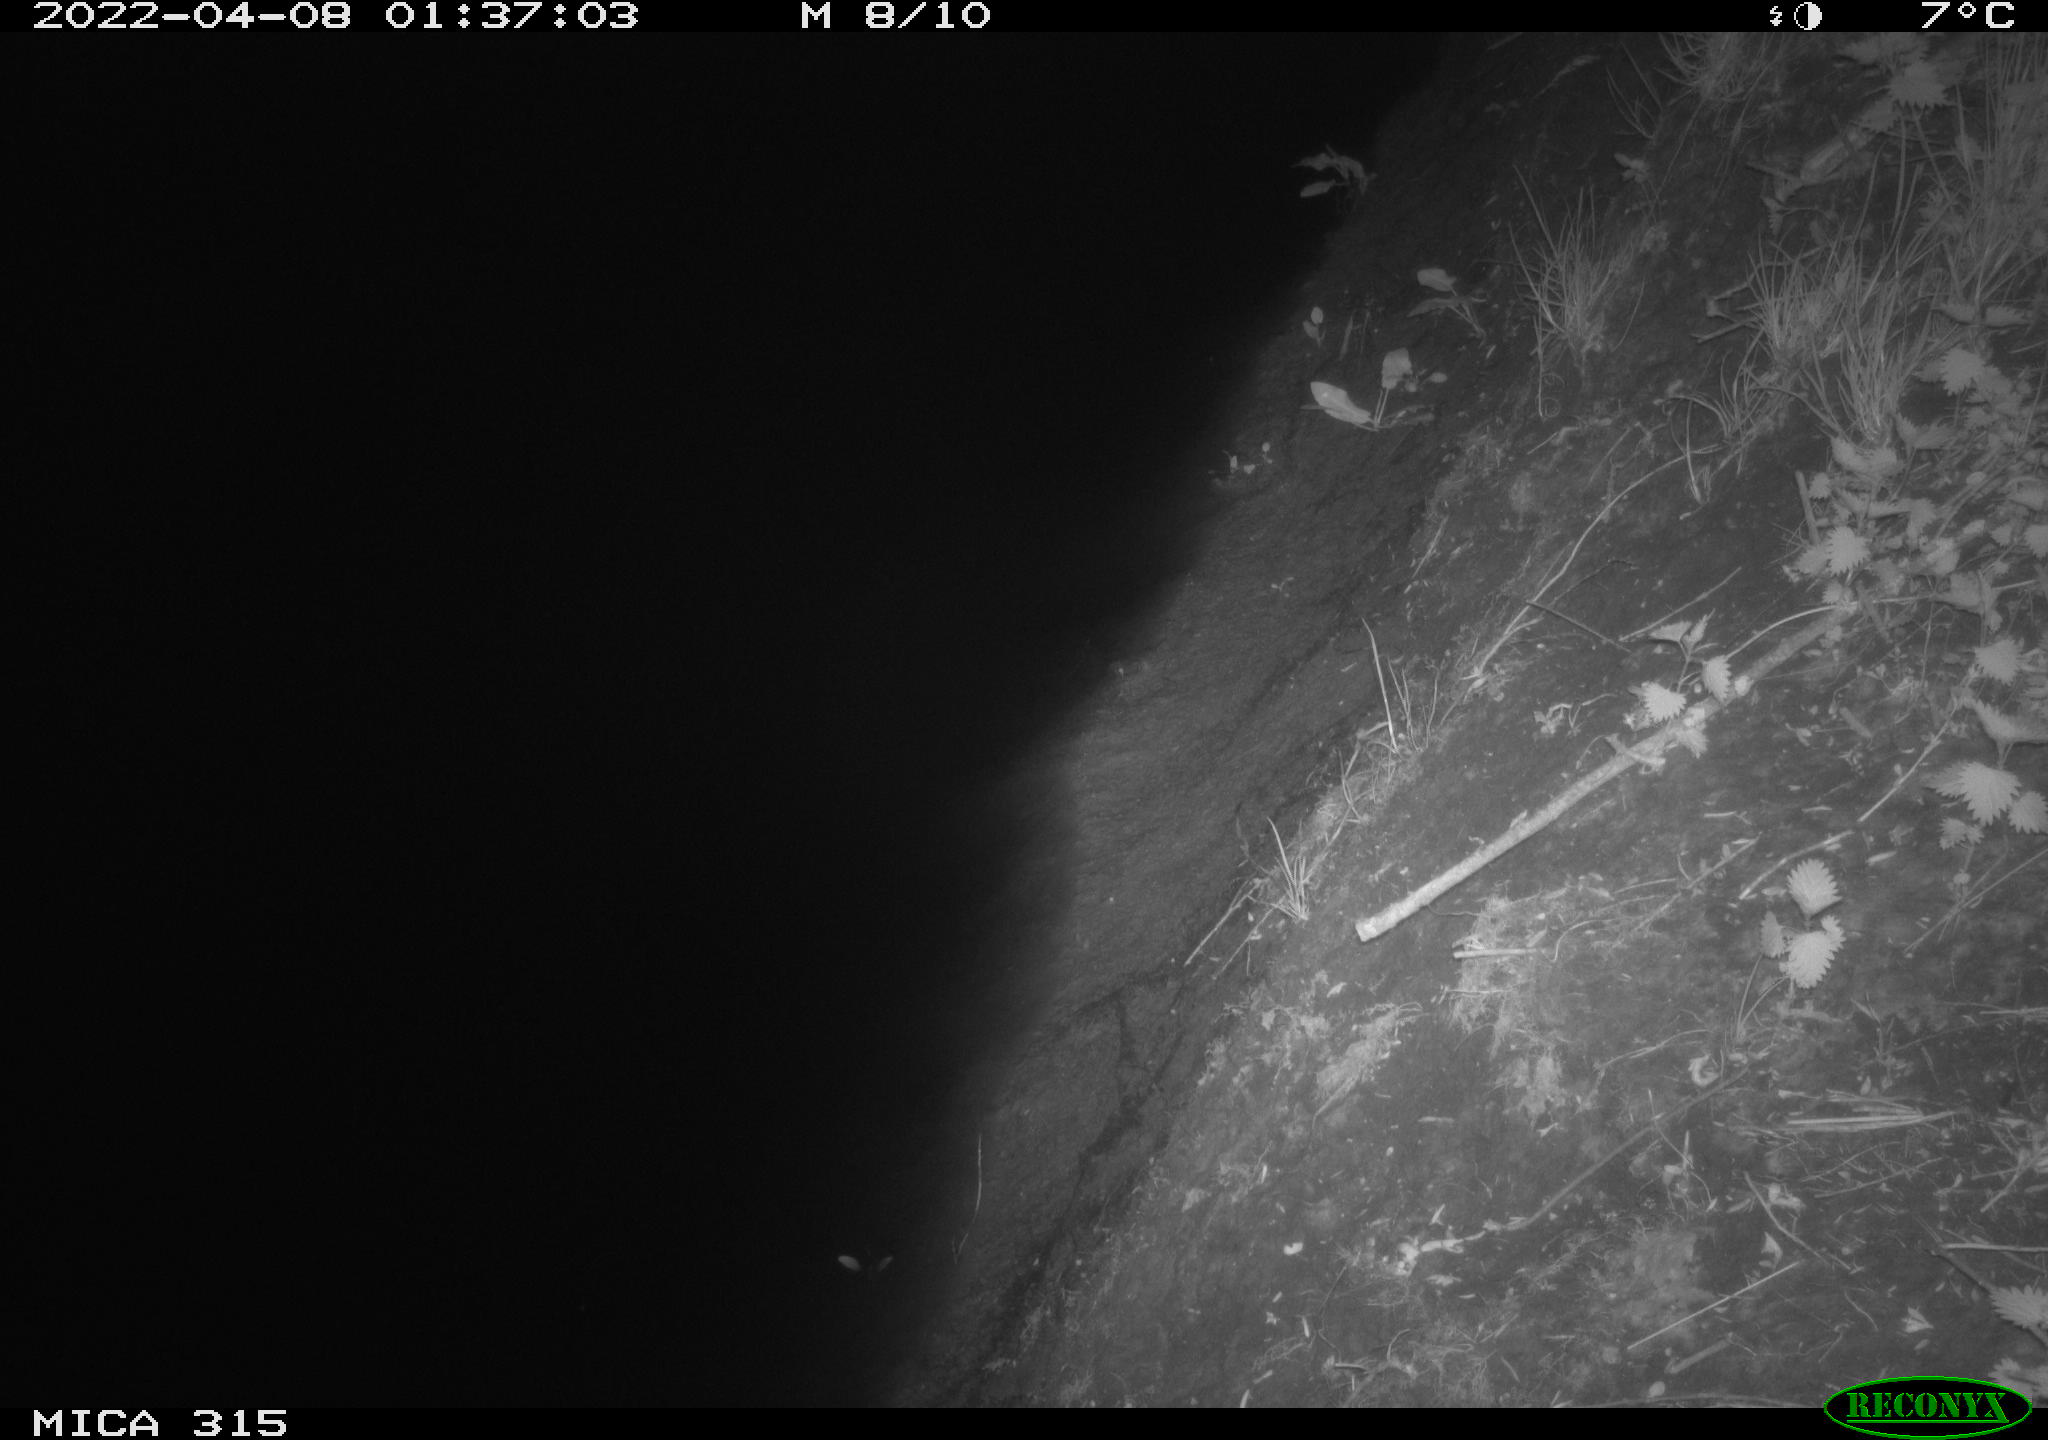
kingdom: Animalia
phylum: Chordata
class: Mammalia
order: Rodentia
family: Muridae
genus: Rattus
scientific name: Rattus norvegicus
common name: Brown rat
